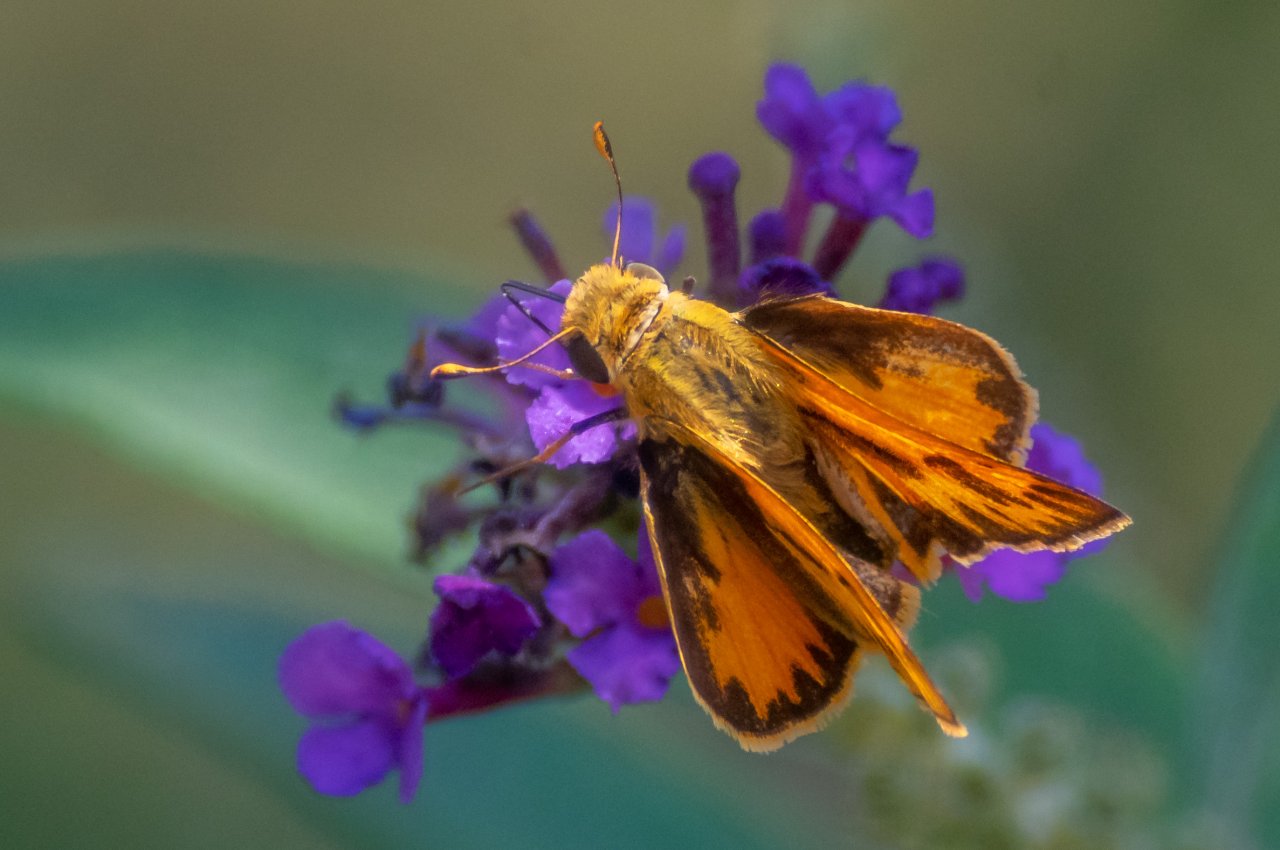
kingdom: Animalia
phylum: Arthropoda
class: Insecta
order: Lepidoptera
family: Hesperiidae
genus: Hylephila
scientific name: Hylephila phyleus
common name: Fiery Skipper
